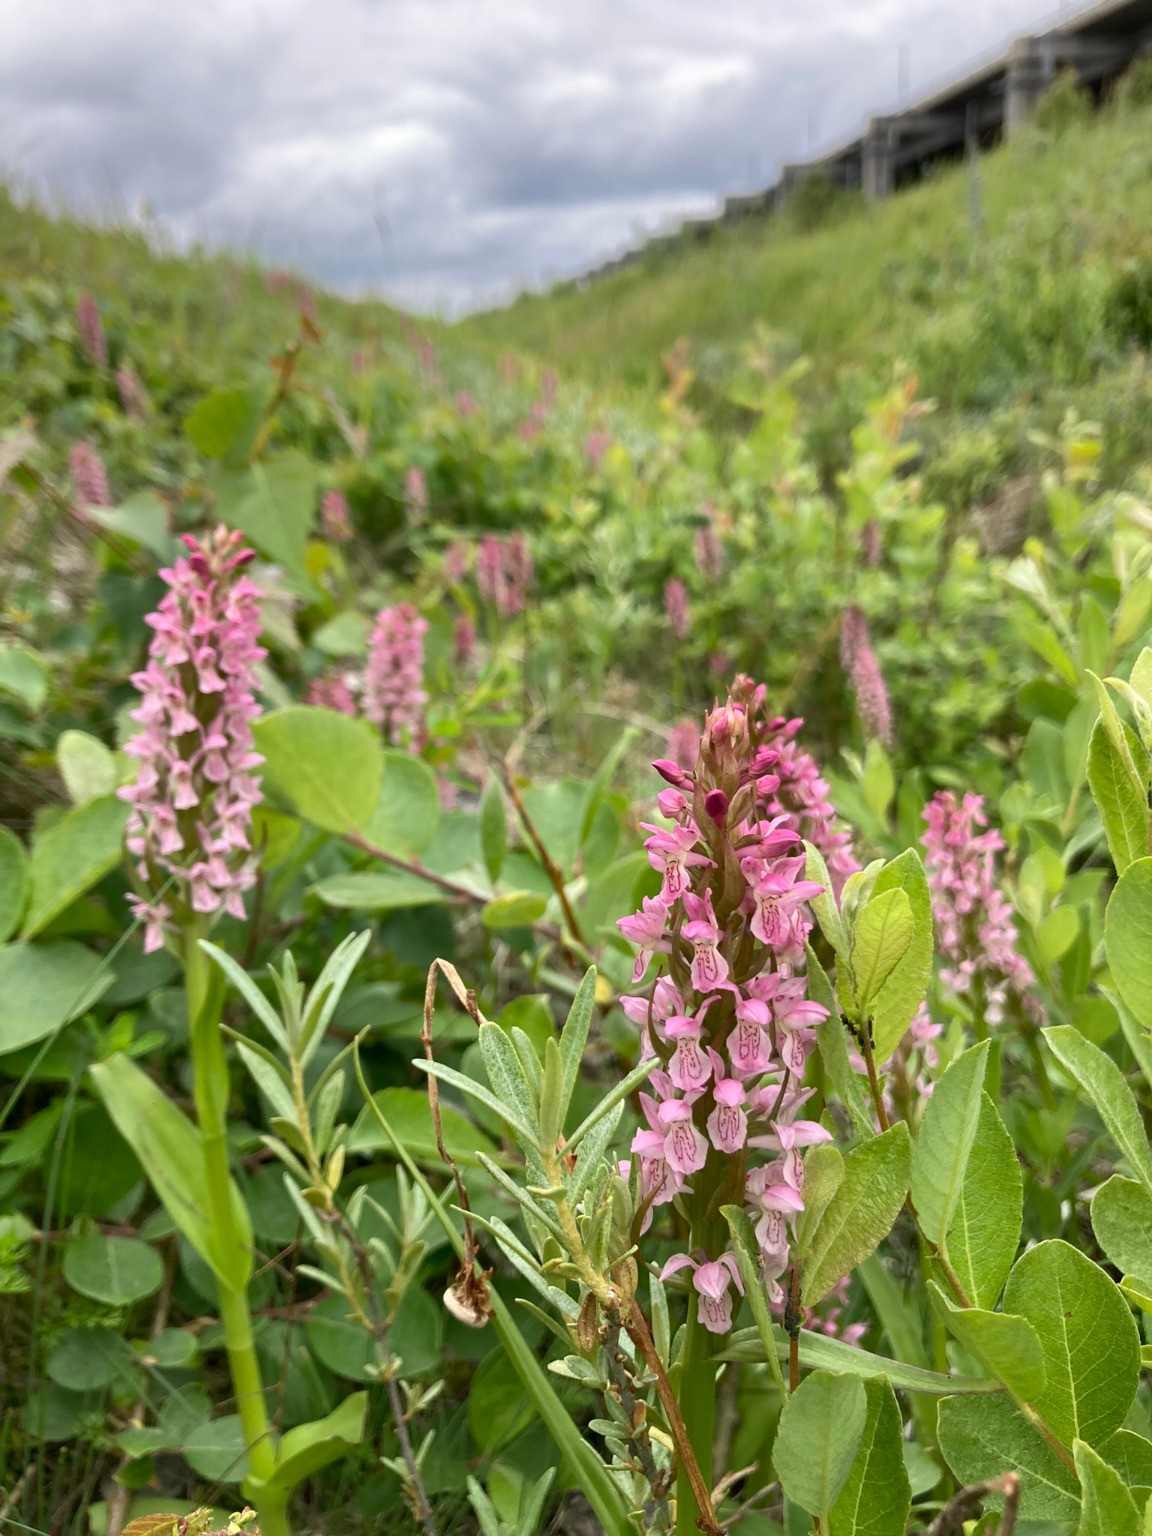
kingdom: Plantae
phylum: Tracheophyta
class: Liliopsida
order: Asparagales
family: Orchidaceae
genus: Dactylorhiza
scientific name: Dactylorhiza incarnata
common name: Kødfarvet gøgeurt
